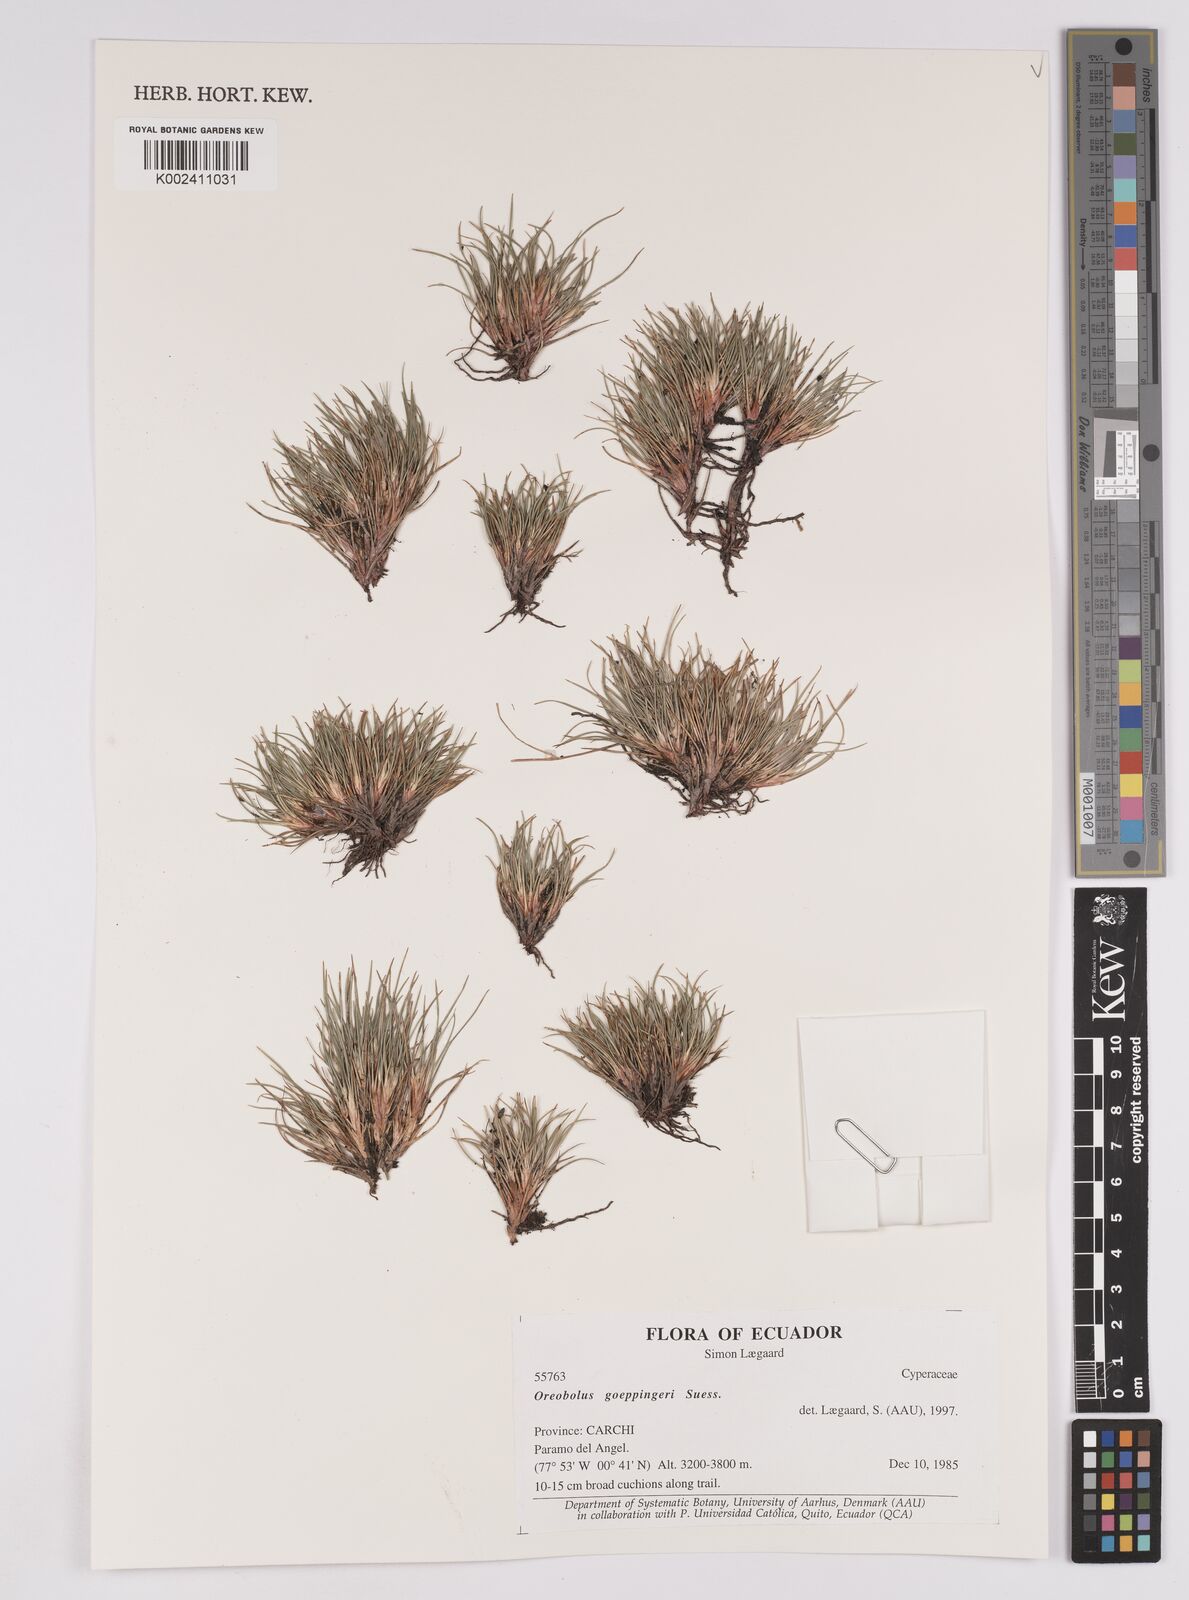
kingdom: Plantae
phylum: Tracheophyta
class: Liliopsida
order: Poales
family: Cyperaceae
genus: Oreobolus
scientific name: Oreobolus goeppingeri
